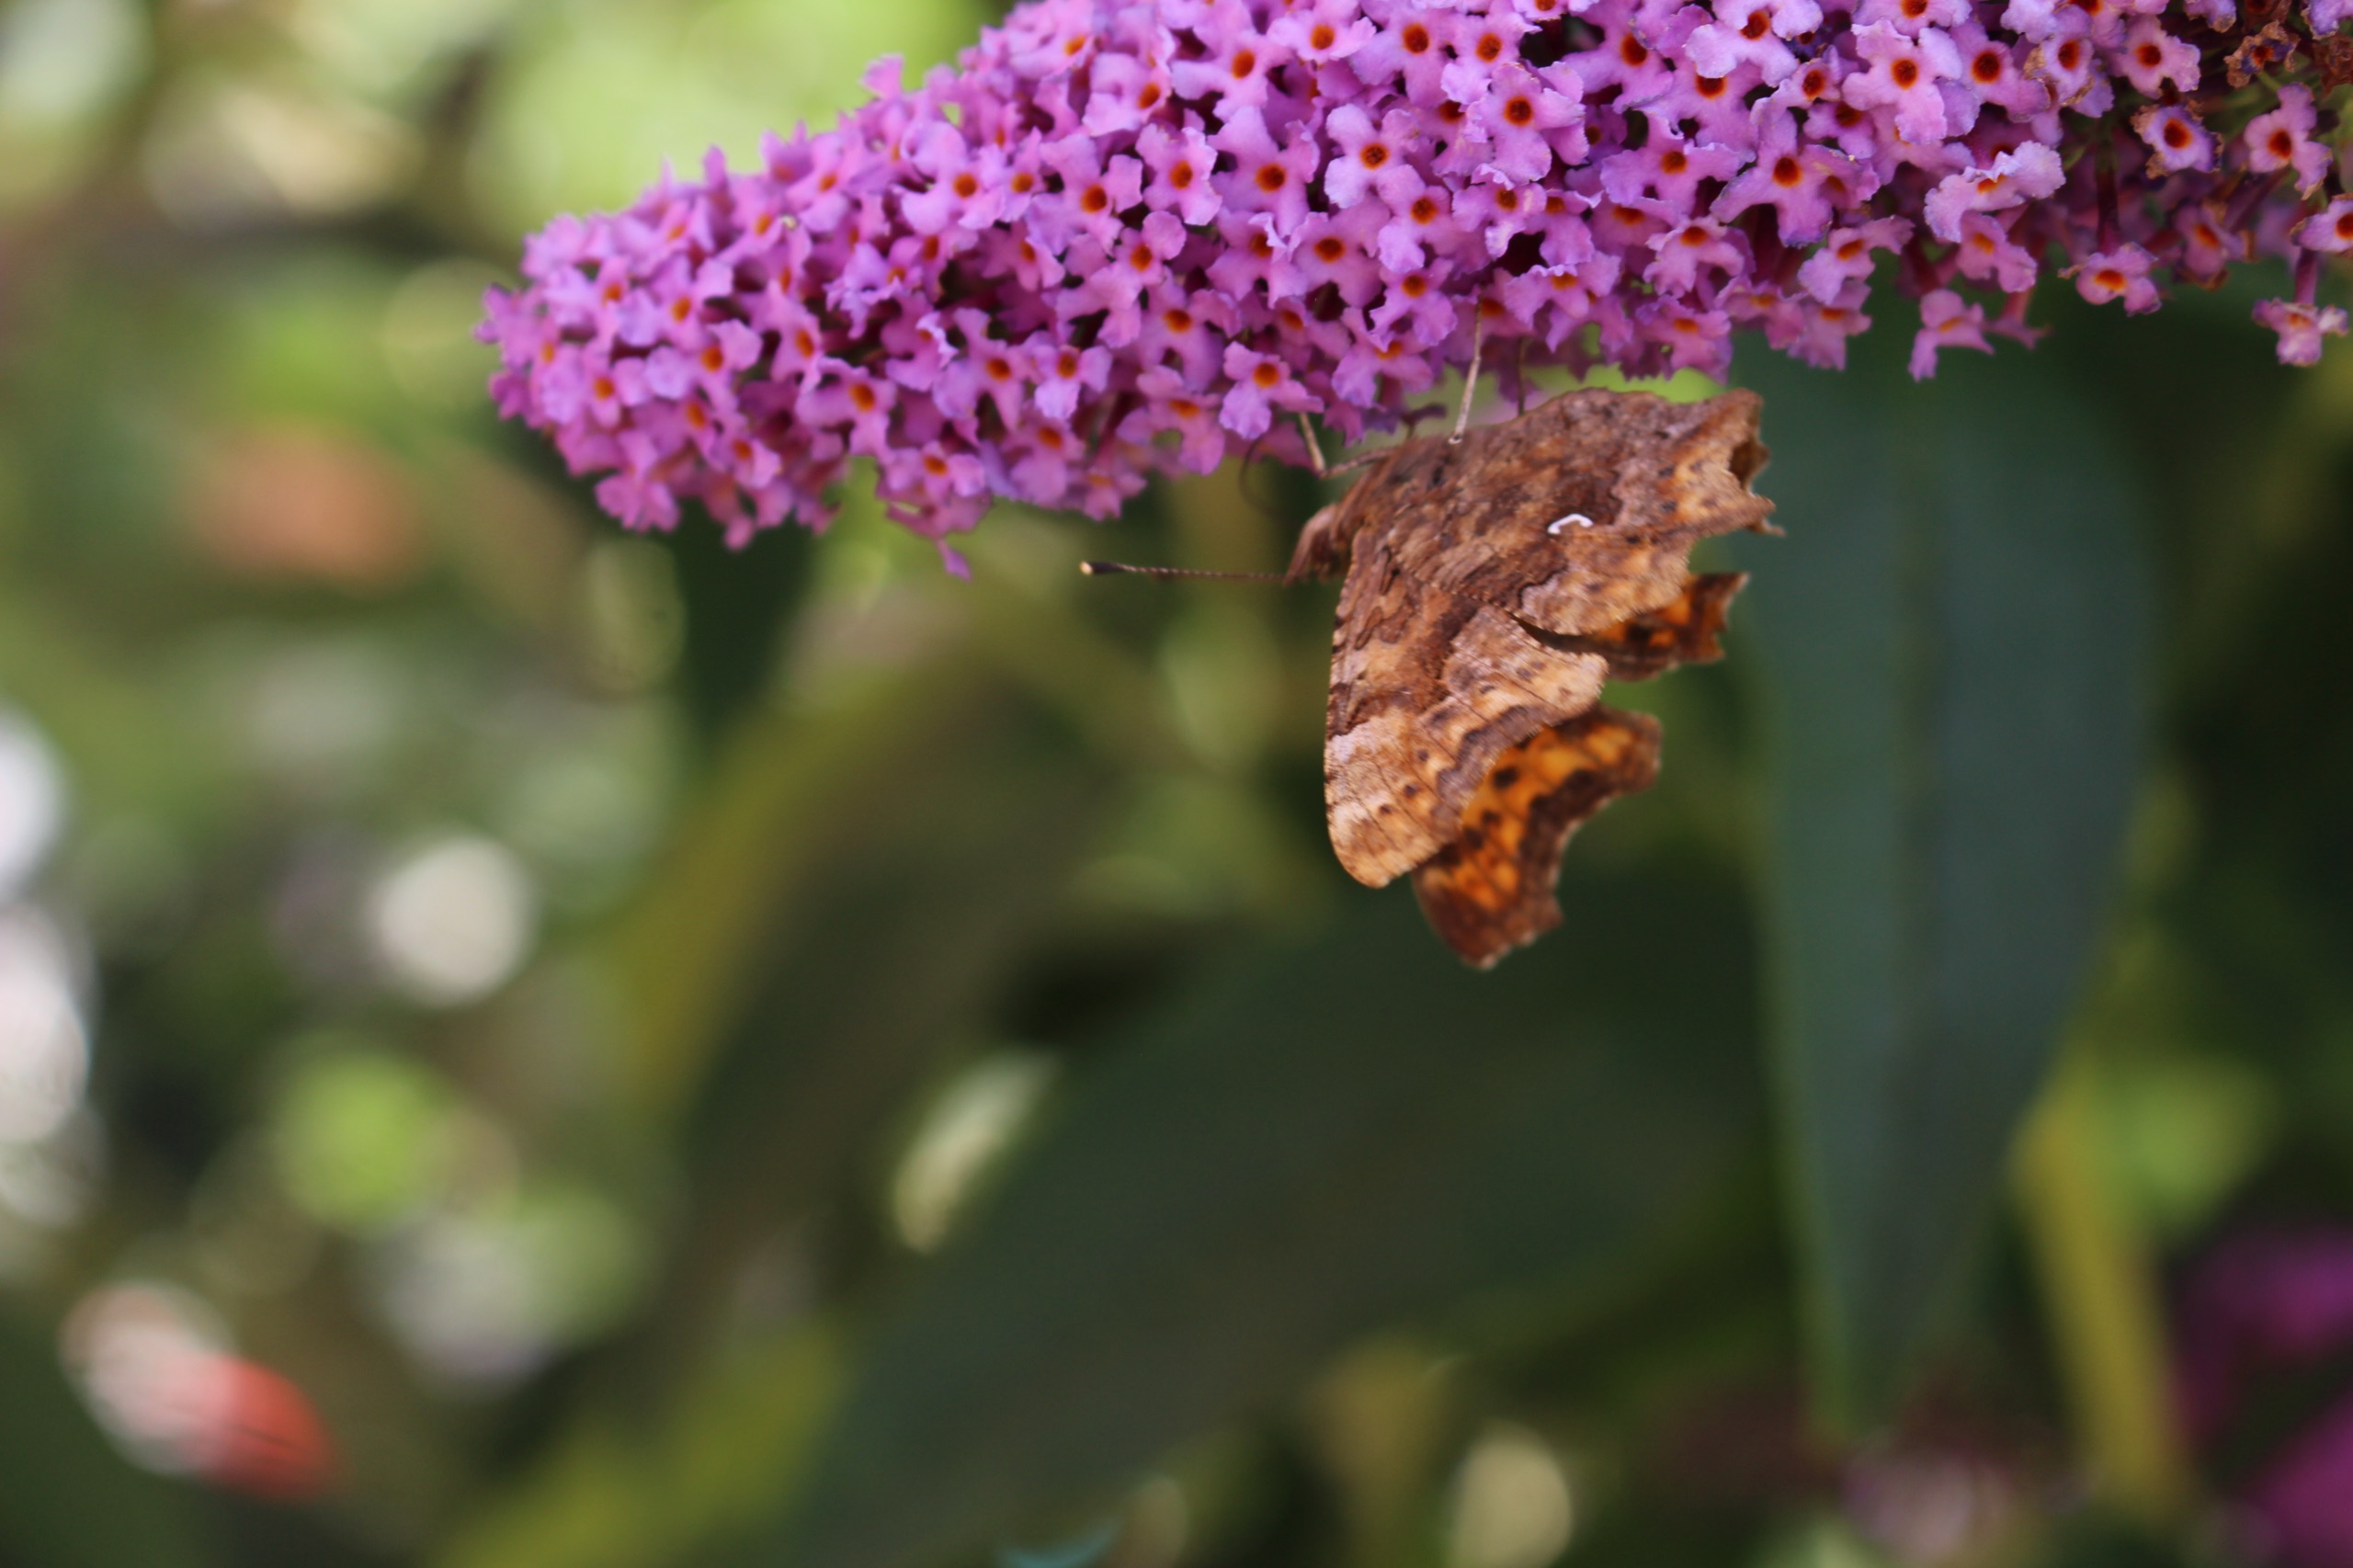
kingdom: Animalia
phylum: Arthropoda
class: Insecta
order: Lepidoptera
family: Nymphalidae
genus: Polygonia
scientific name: Polygonia c-album
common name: Det hvide C
